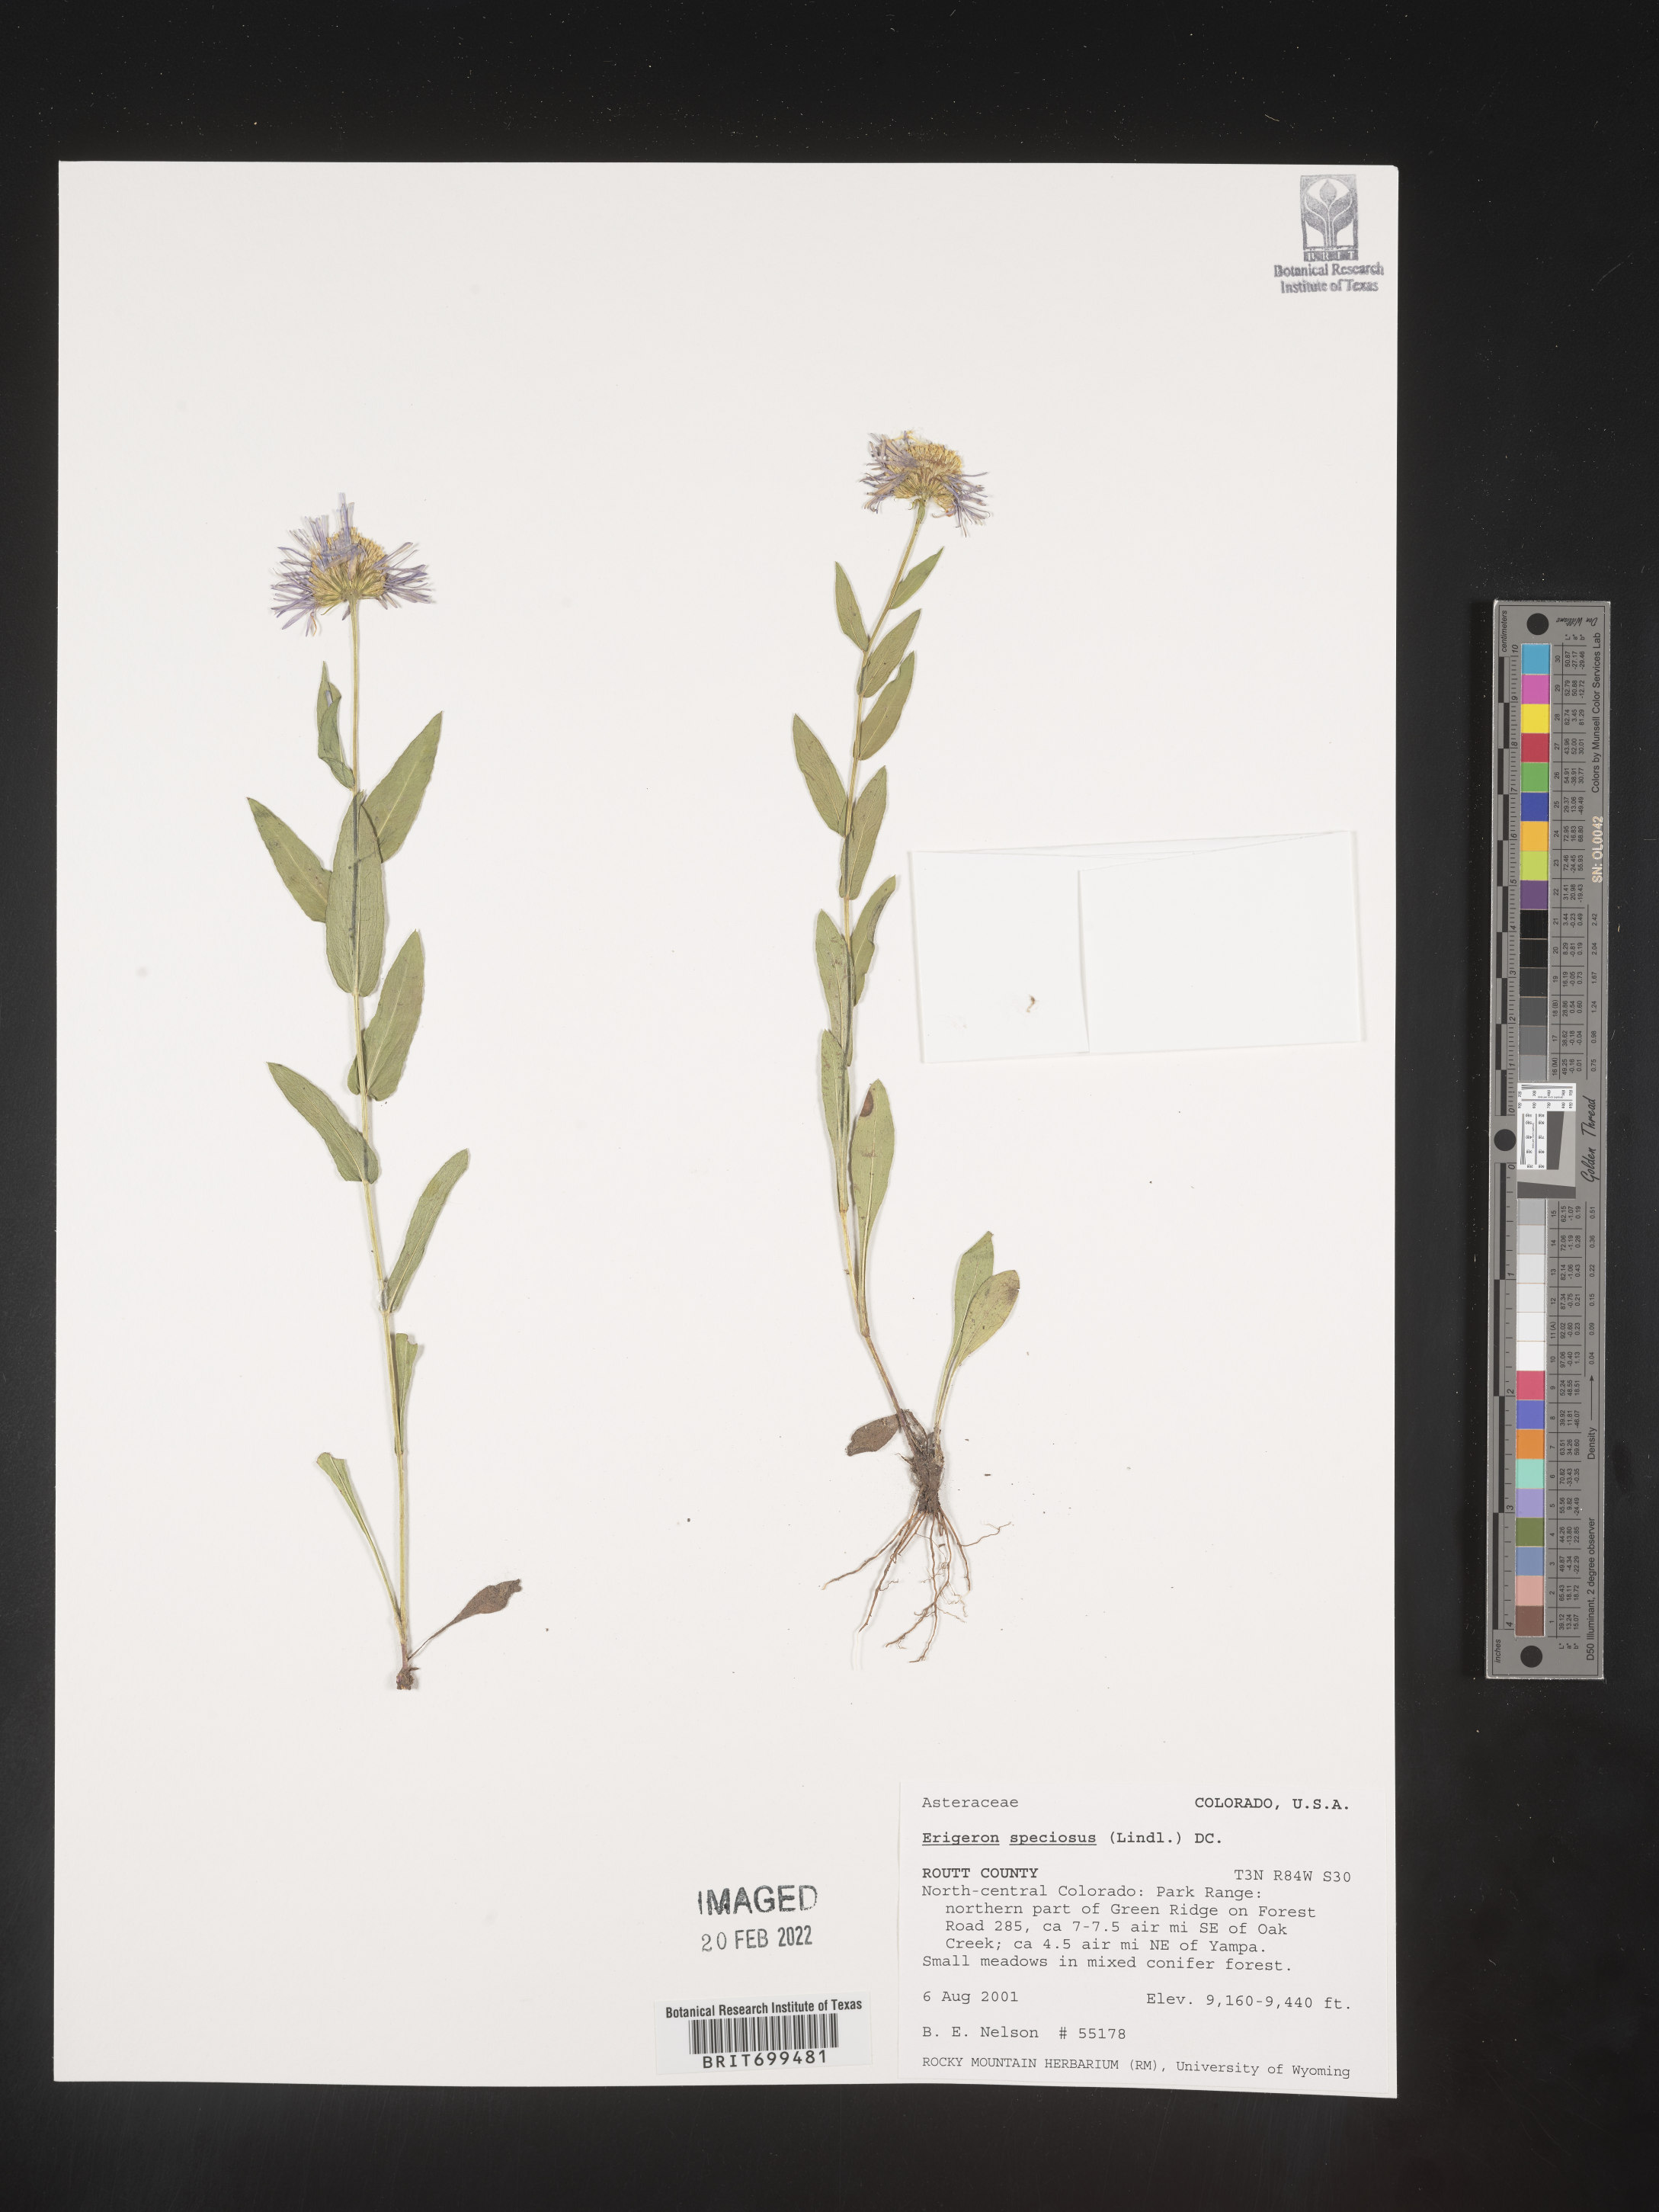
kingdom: Plantae
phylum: Tracheophyta
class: Magnoliopsida
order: Asterales
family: Asteraceae
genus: Erigeron
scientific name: Erigeron speciosus
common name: Aspen fleabane
